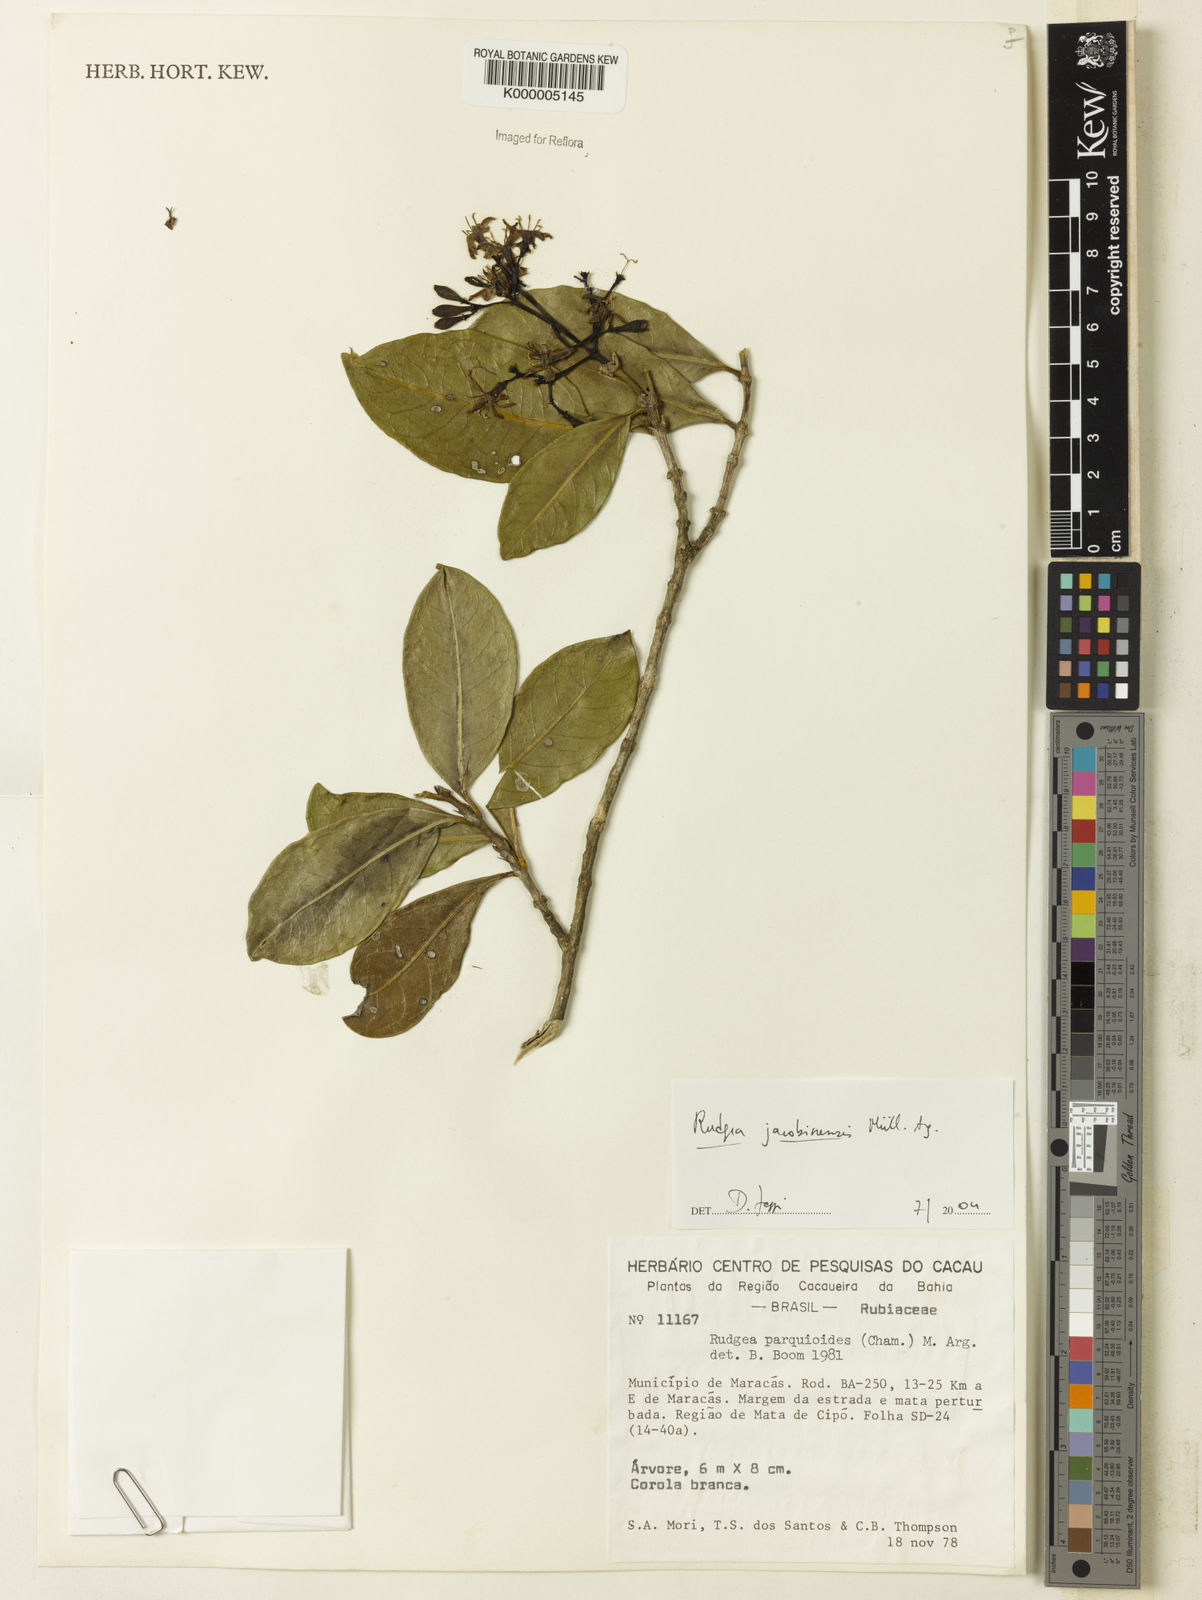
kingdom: Plantae
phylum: Tracheophyta
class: Magnoliopsida
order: Gentianales
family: Rubiaceae
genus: Rudgea
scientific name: Rudgea erioloba
